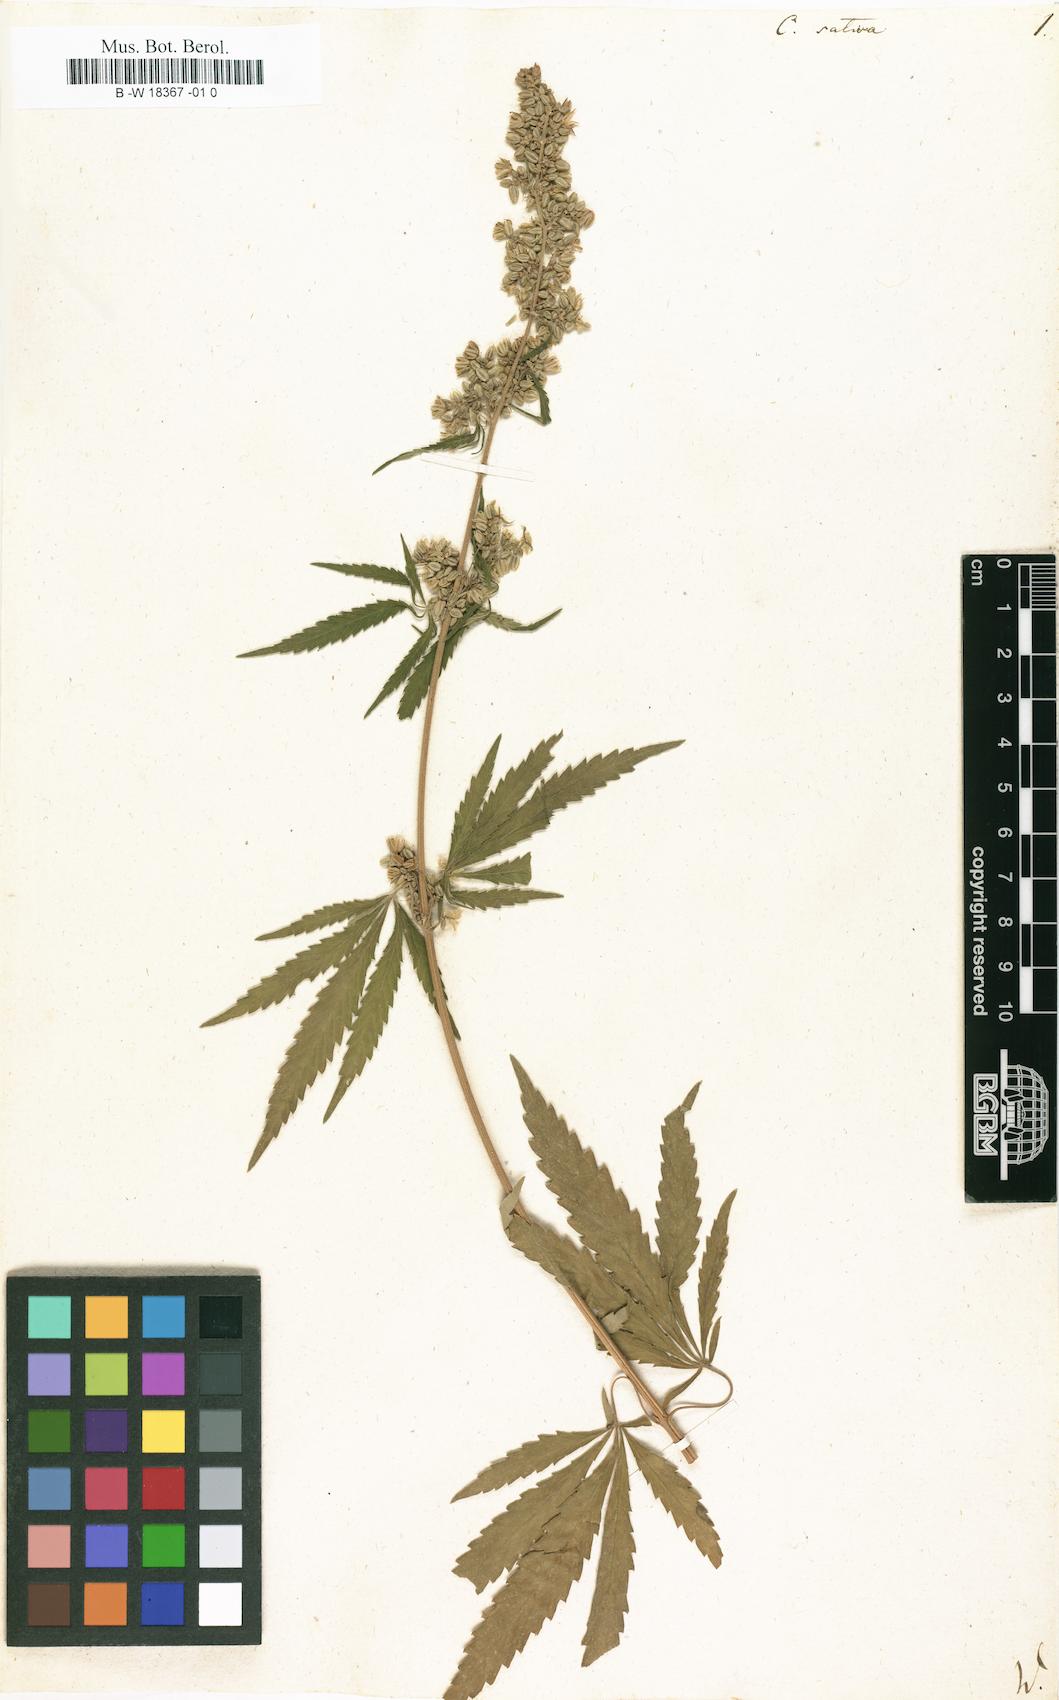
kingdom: Plantae
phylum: Tracheophyta
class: Magnoliopsida
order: Rosales
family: Cannabaceae
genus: Cannabis
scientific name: Cannabis sativa
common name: Hemp
